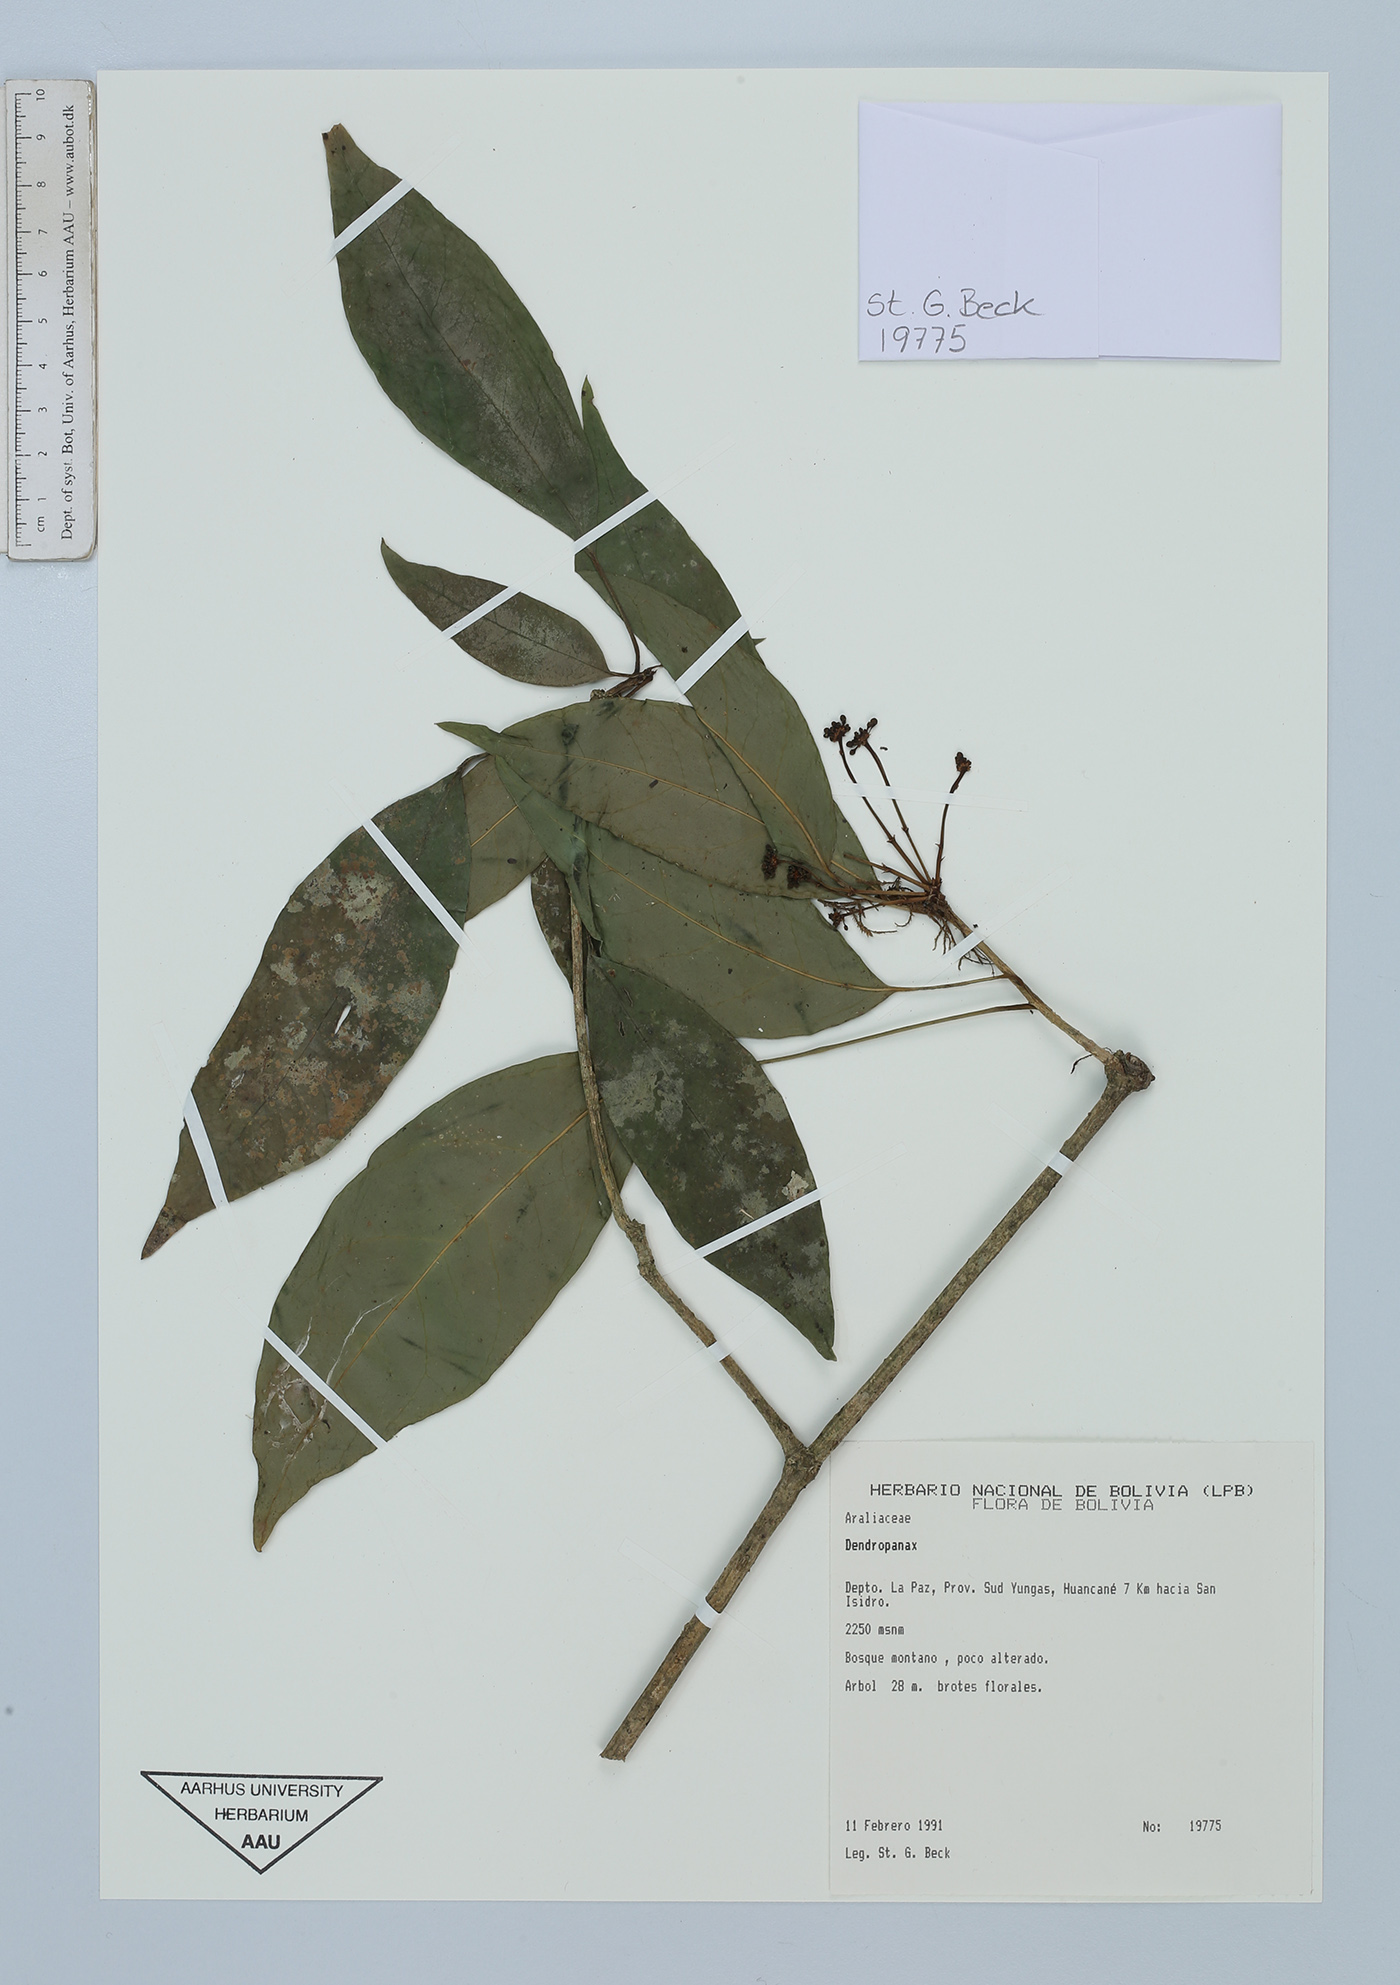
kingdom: Plantae
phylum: Tracheophyta
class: Magnoliopsida
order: Apiales
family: Araliaceae
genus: Dendropanax
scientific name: Dendropanax
